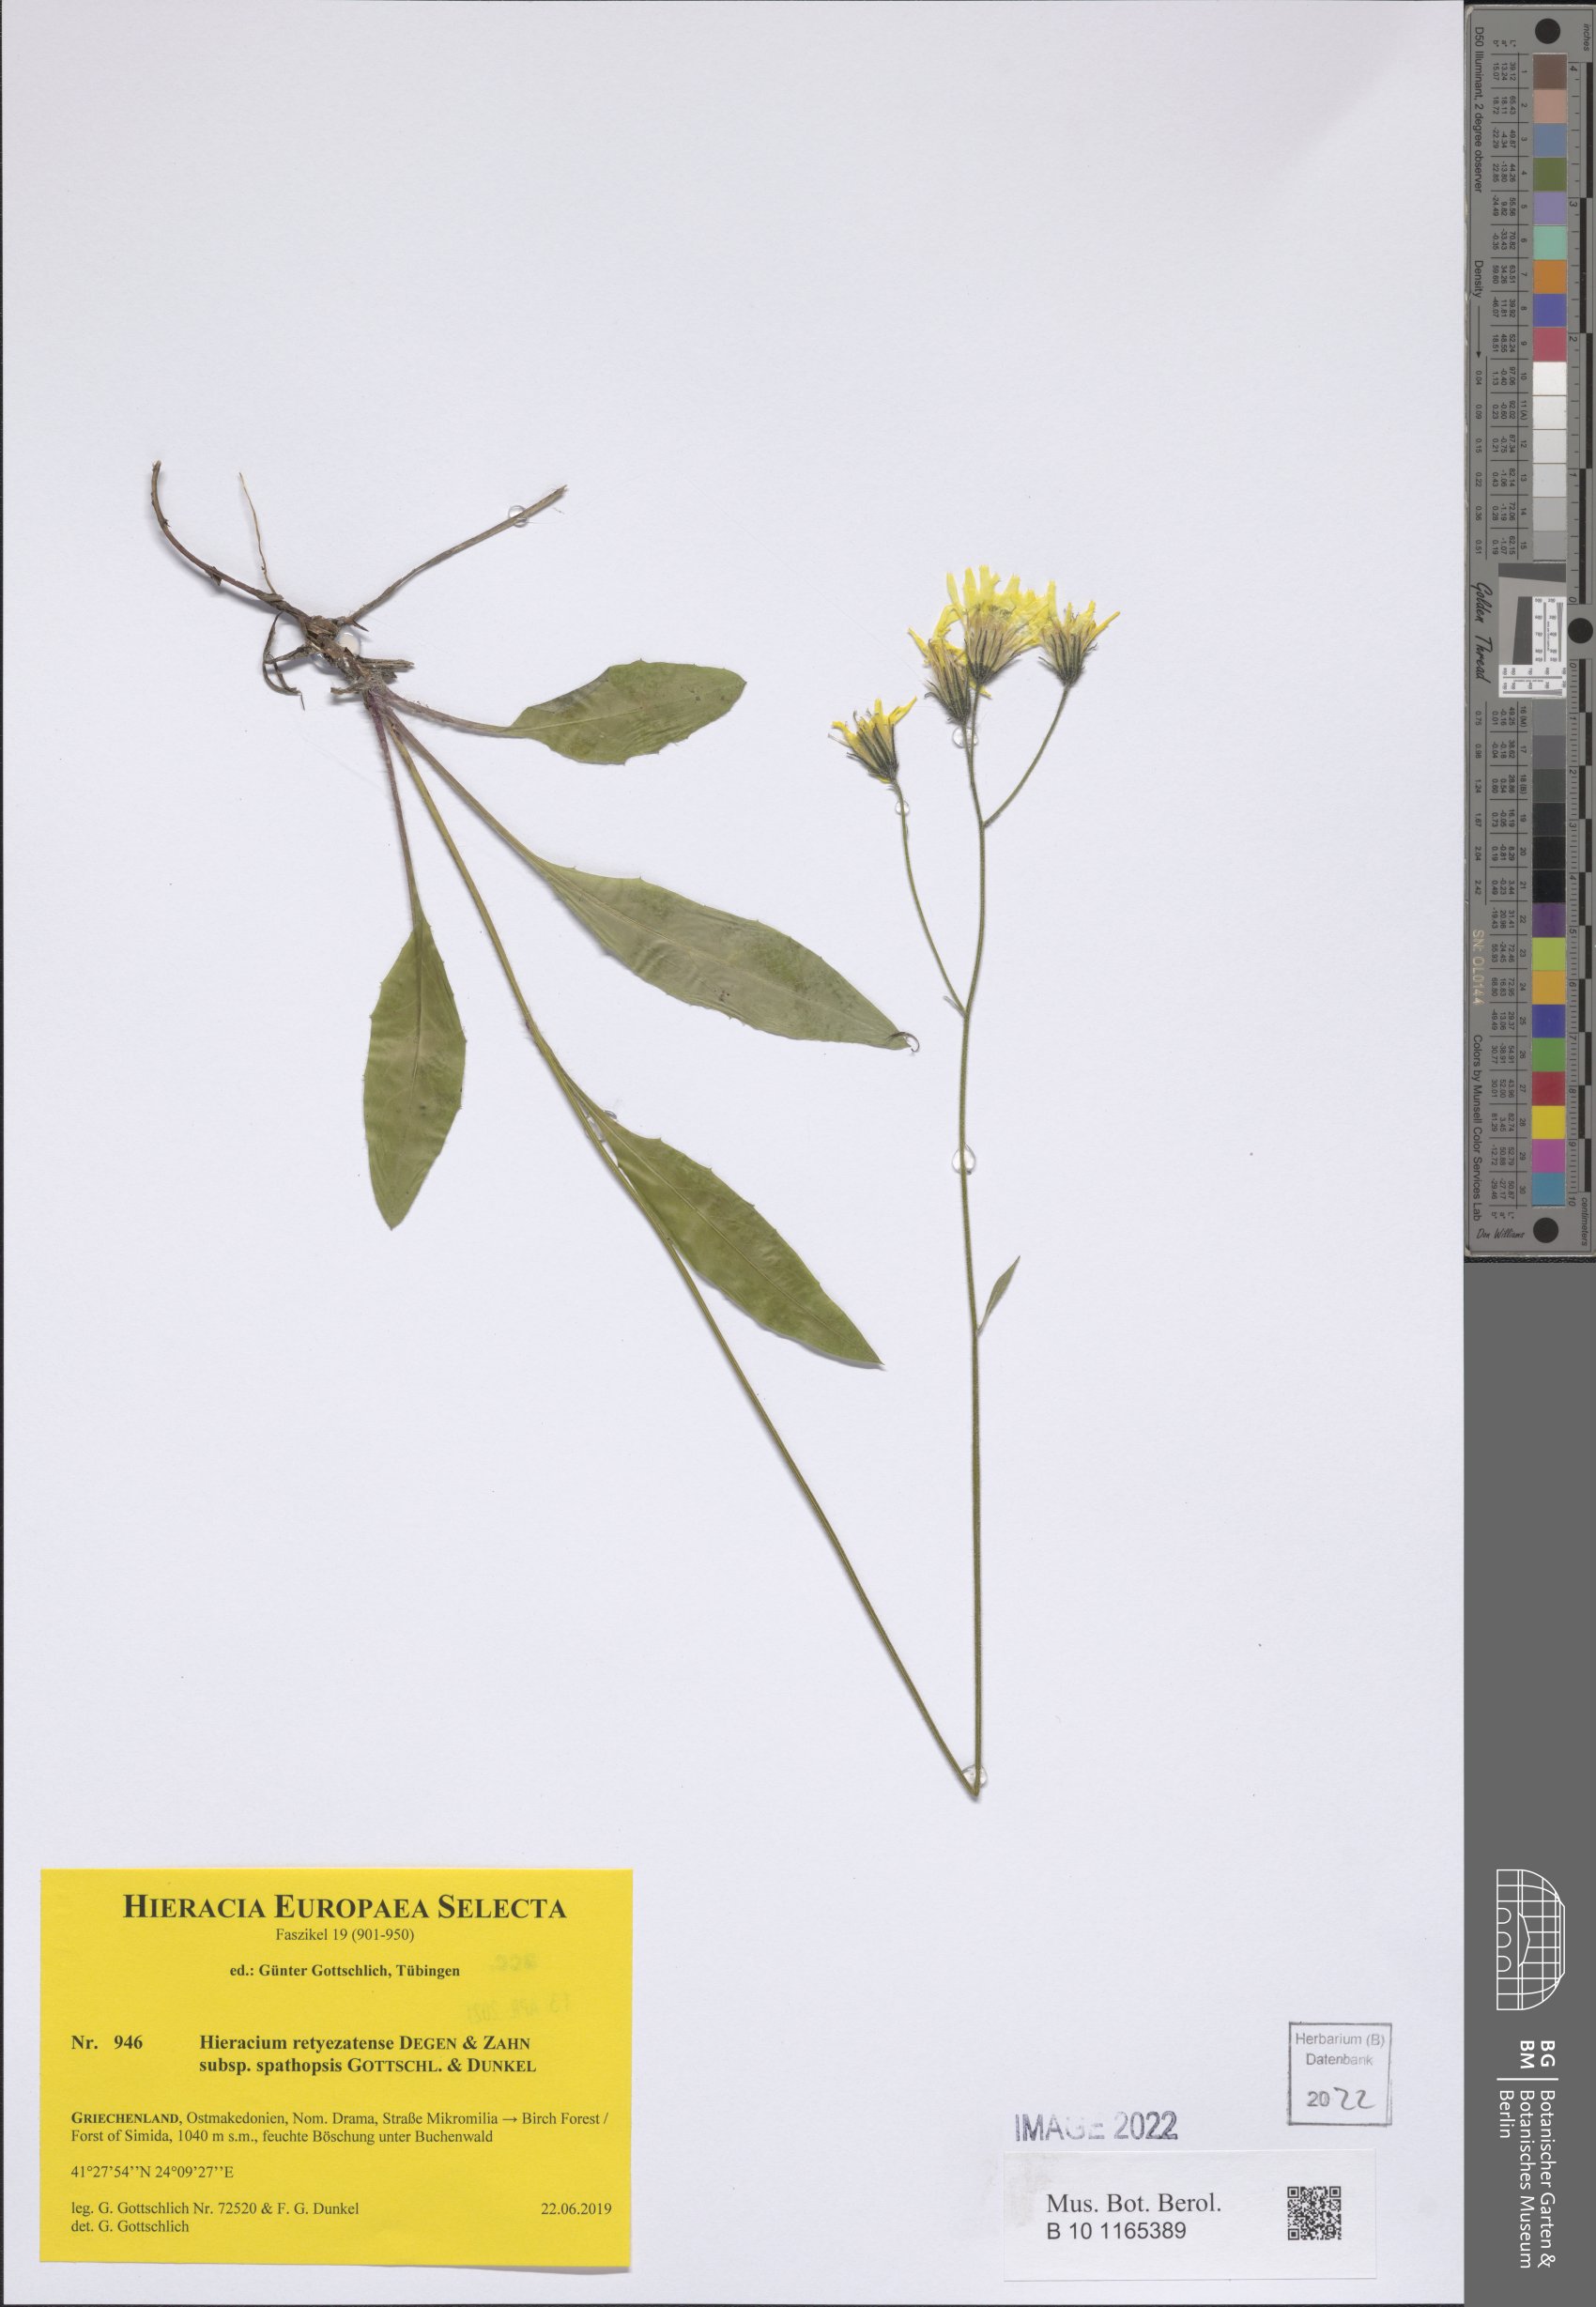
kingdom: Plantae
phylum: Tracheophyta
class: Magnoliopsida
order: Asterales
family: Asteraceae
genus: Hieracium
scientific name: Hieracium retyezatense
